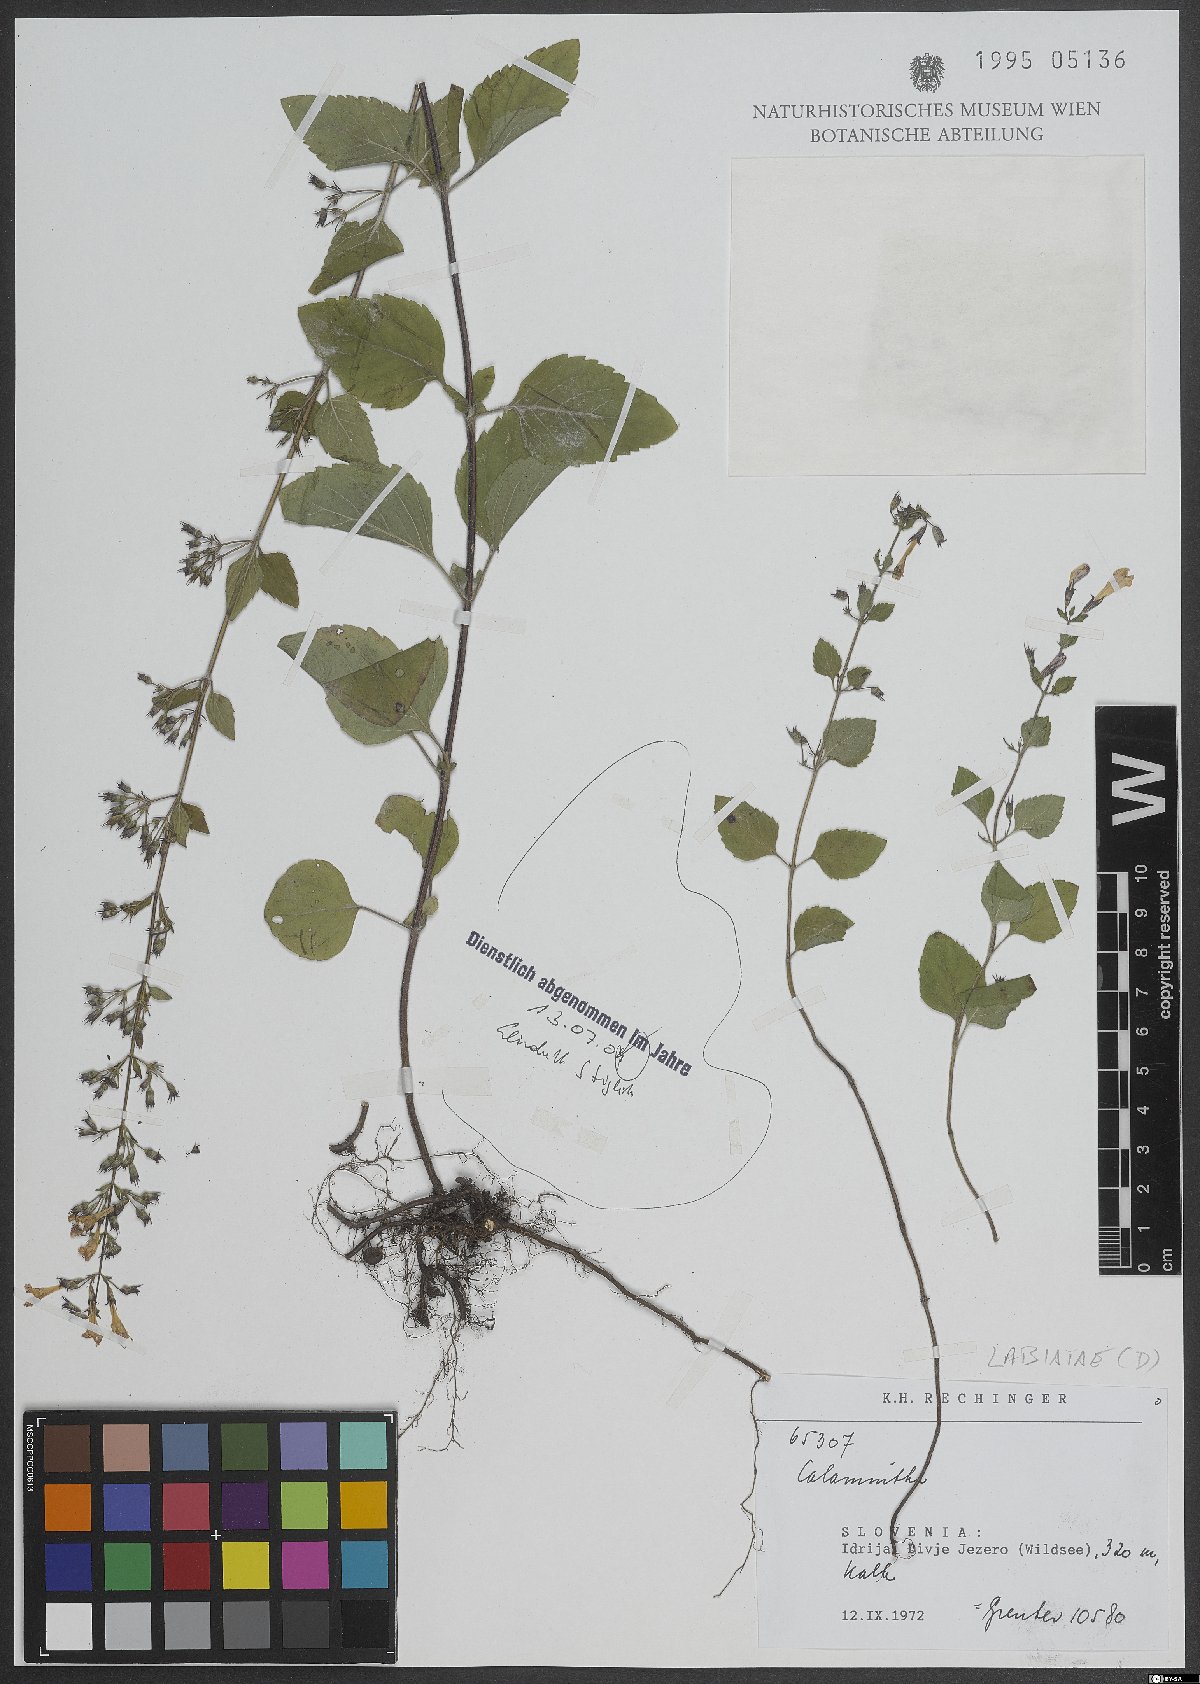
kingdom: Plantae
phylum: Tracheophyta
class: Magnoliopsida
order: Lamiales
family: Lamiaceae
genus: Calamintha
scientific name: Calamintha
